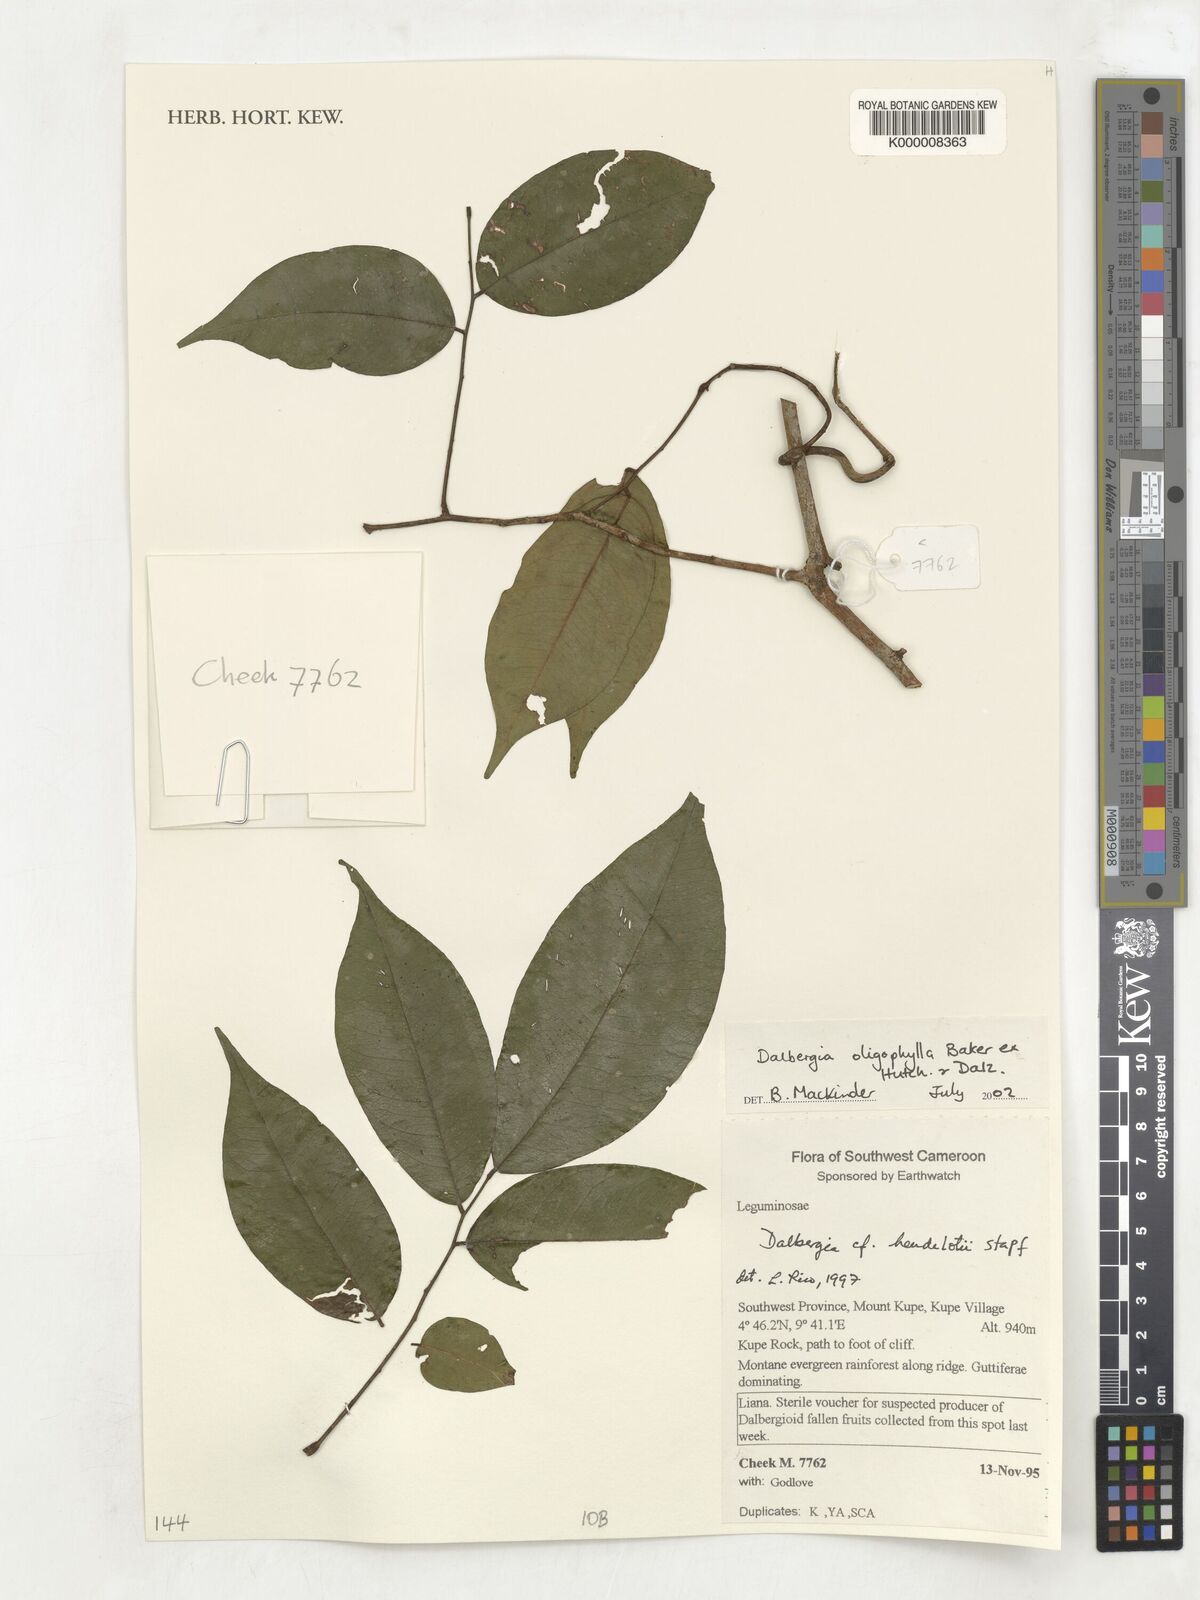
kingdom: Plantae
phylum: Tracheophyta
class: Magnoliopsida
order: Fabales
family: Fabaceae
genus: Dalbergia
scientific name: Dalbergia oligophylla
